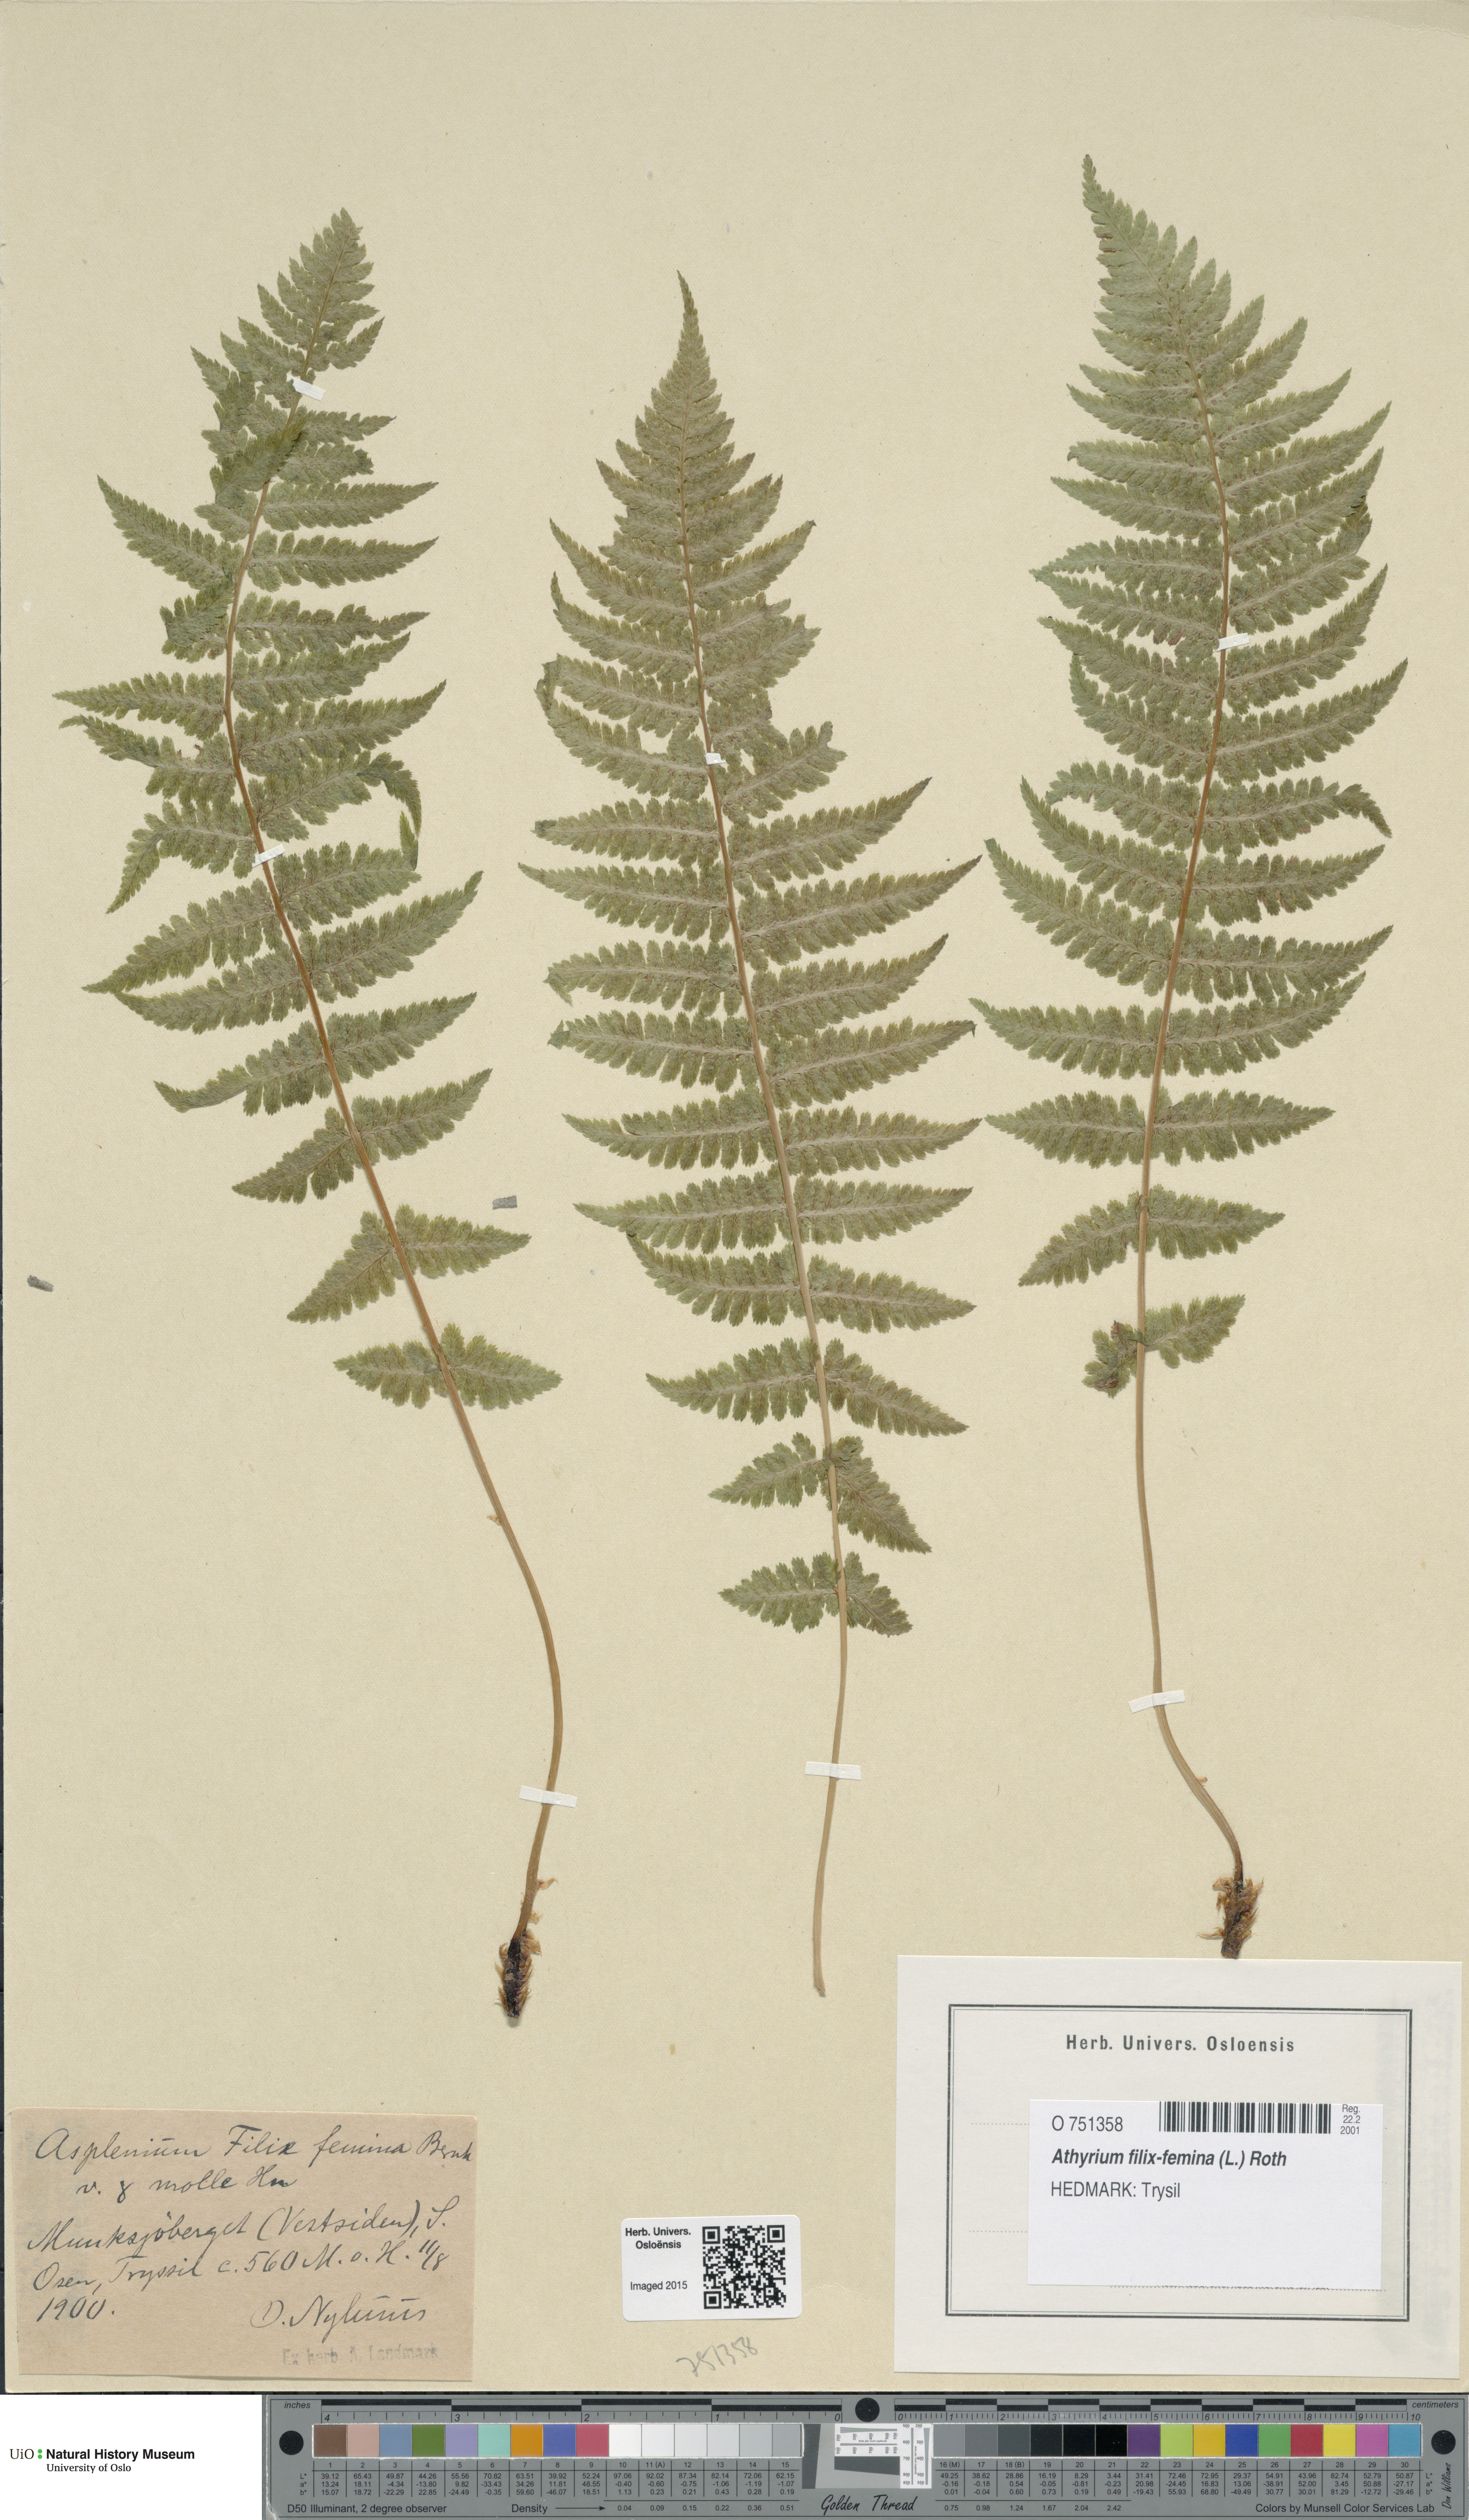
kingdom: Plantae
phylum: Tracheophyta
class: Polypodiopsida
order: Polypodiales
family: Athyriaceae
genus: Athyrium
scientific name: Athyrium filix-femina
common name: Lady fern
